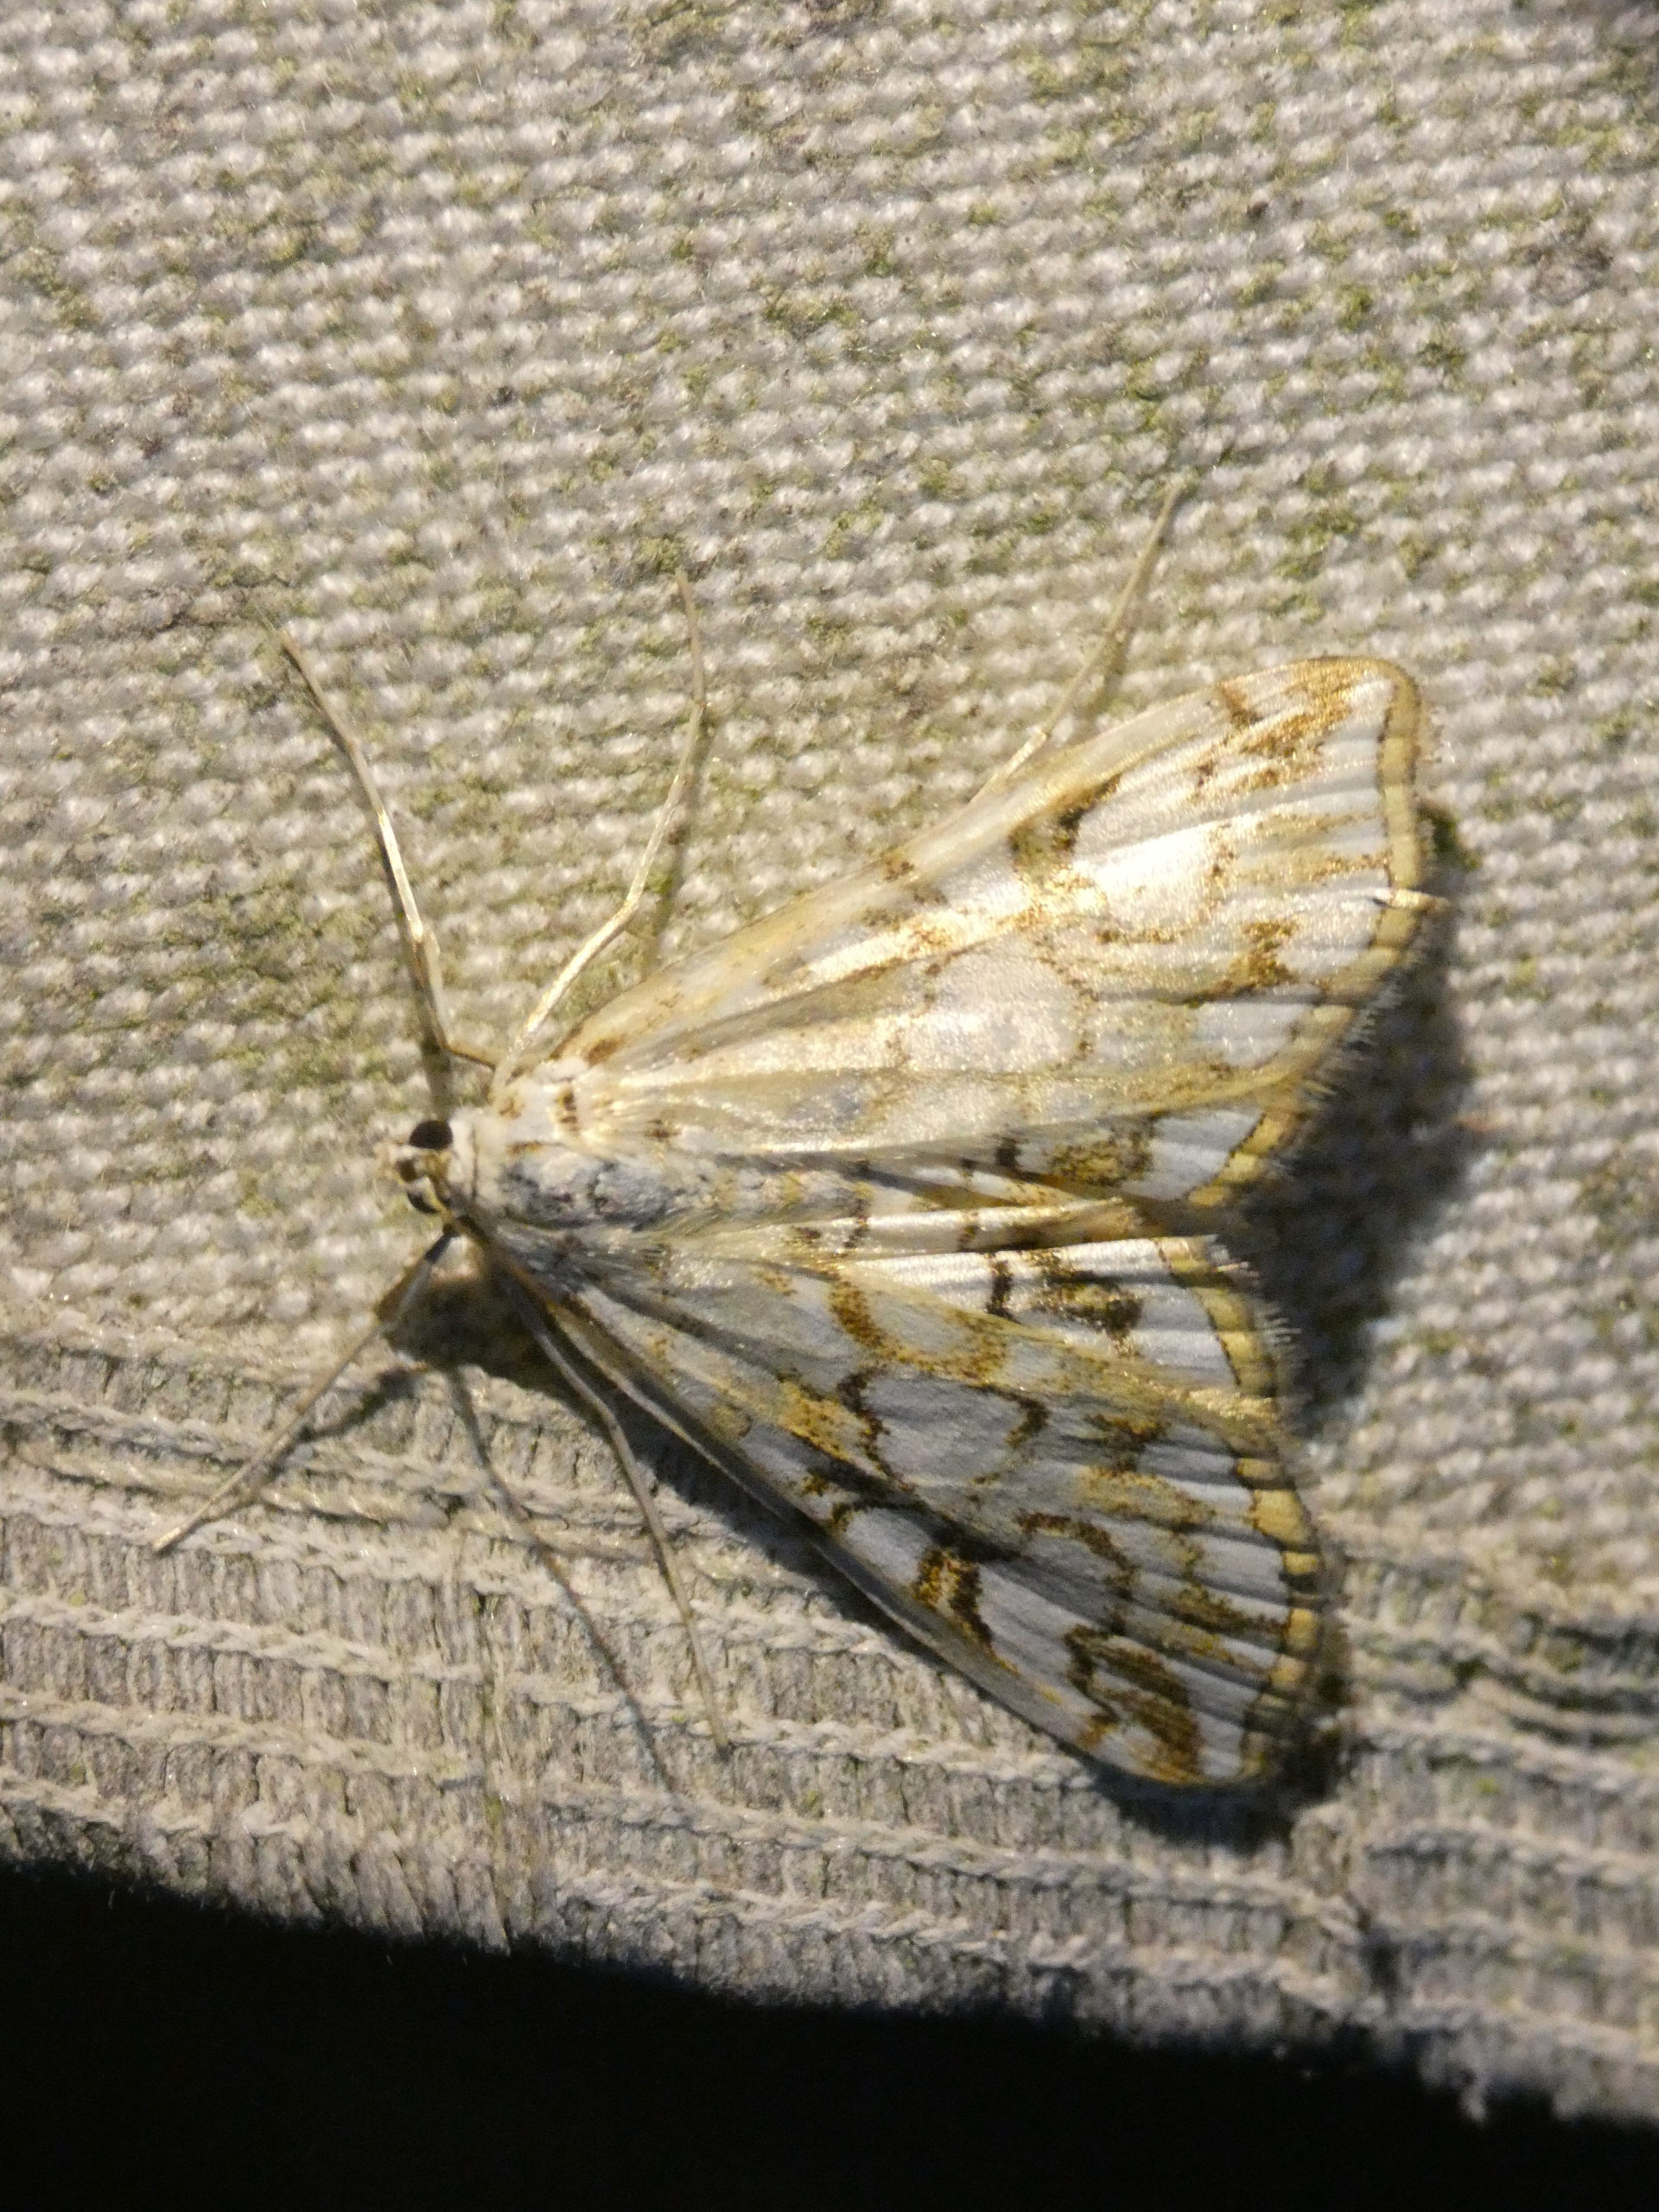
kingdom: Animalia
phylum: Arthropoda
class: Insecta
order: Lepidoptera
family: Crambidae
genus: Elophila
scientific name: Elophila nymphaeata
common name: Åkandehalvmøl
